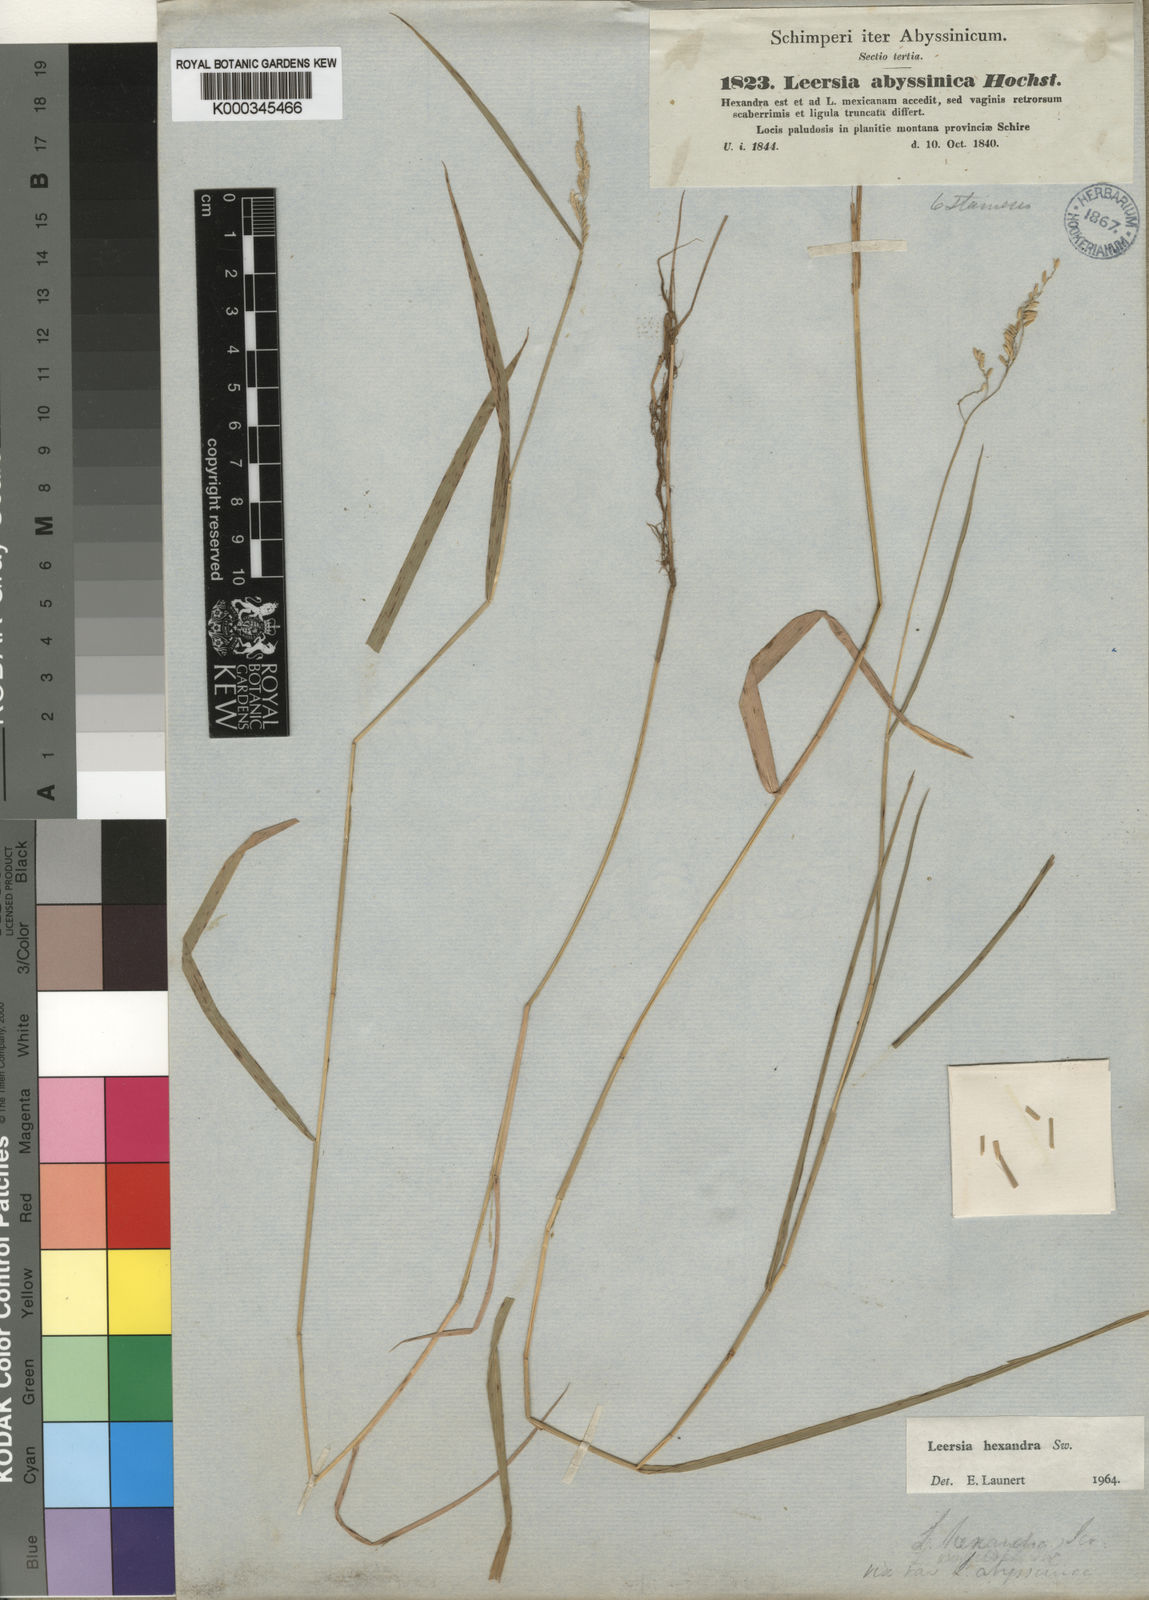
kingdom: Plantae
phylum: Tracheophyta
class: Liliopsida
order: Poales
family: Poaceae
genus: Leersia
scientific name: Leersia hexandra
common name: Southern cut grass
